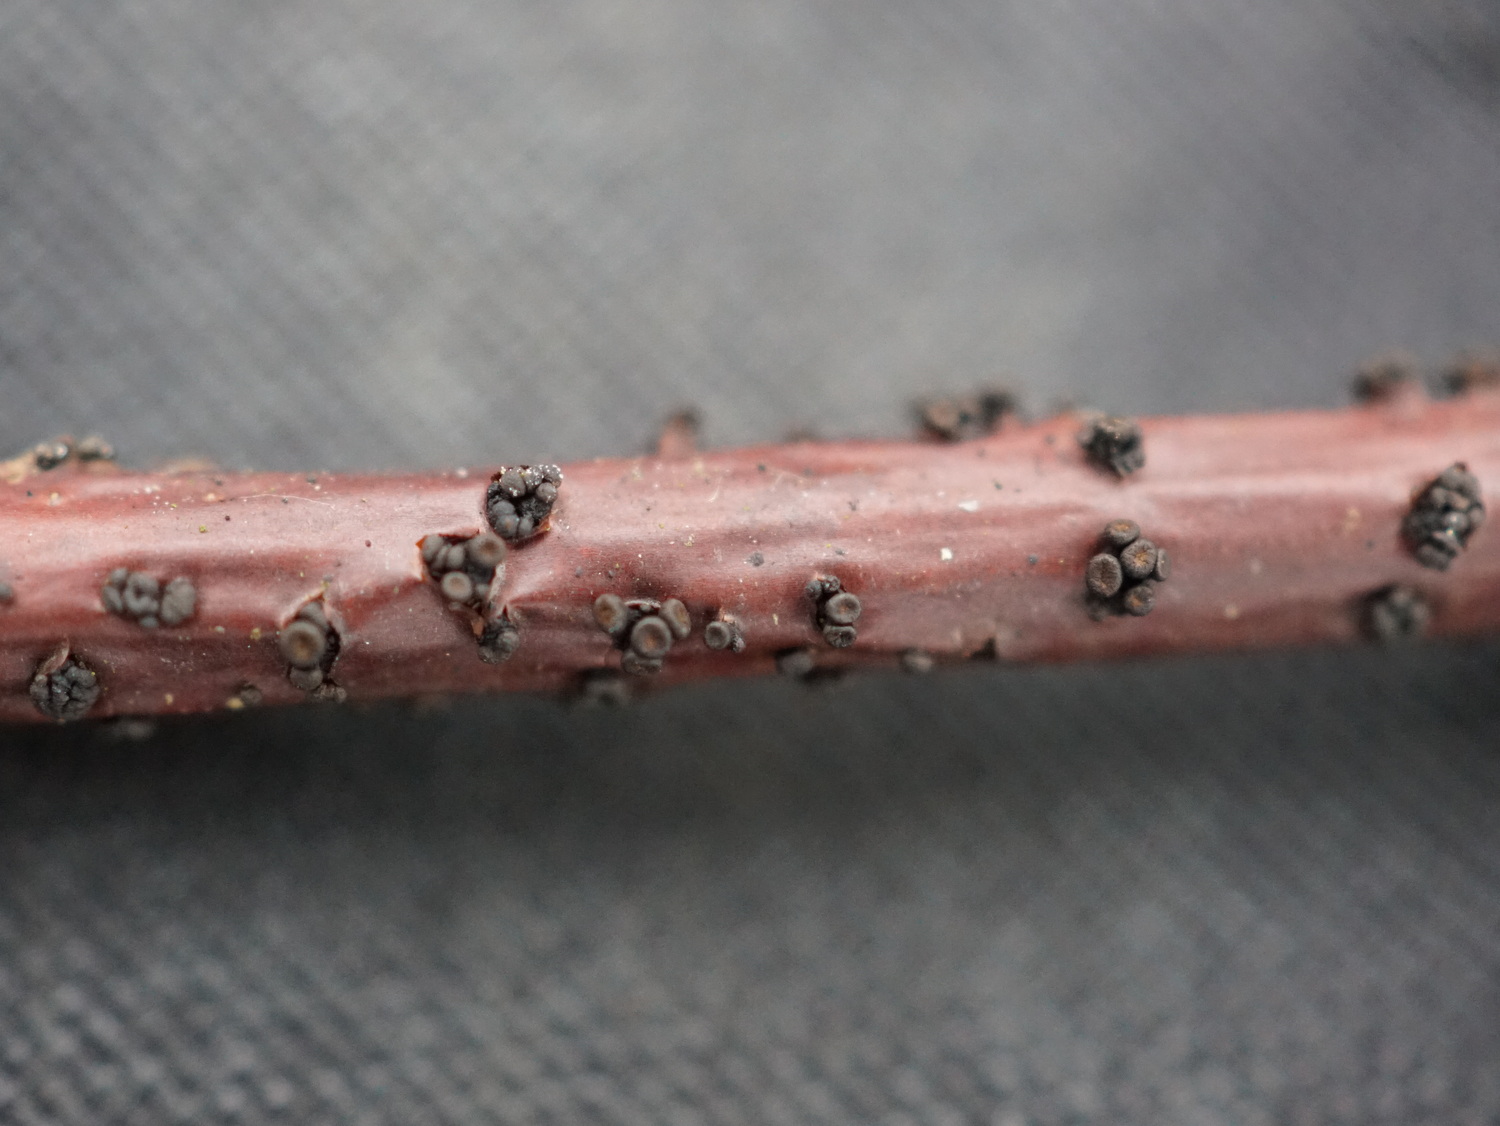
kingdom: Fungi
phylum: Ascomycota
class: Leotiomycetes
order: Helotiales
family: Godroniaceae
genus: Godronia
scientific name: Godronia ribis
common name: ribs-urneskive
